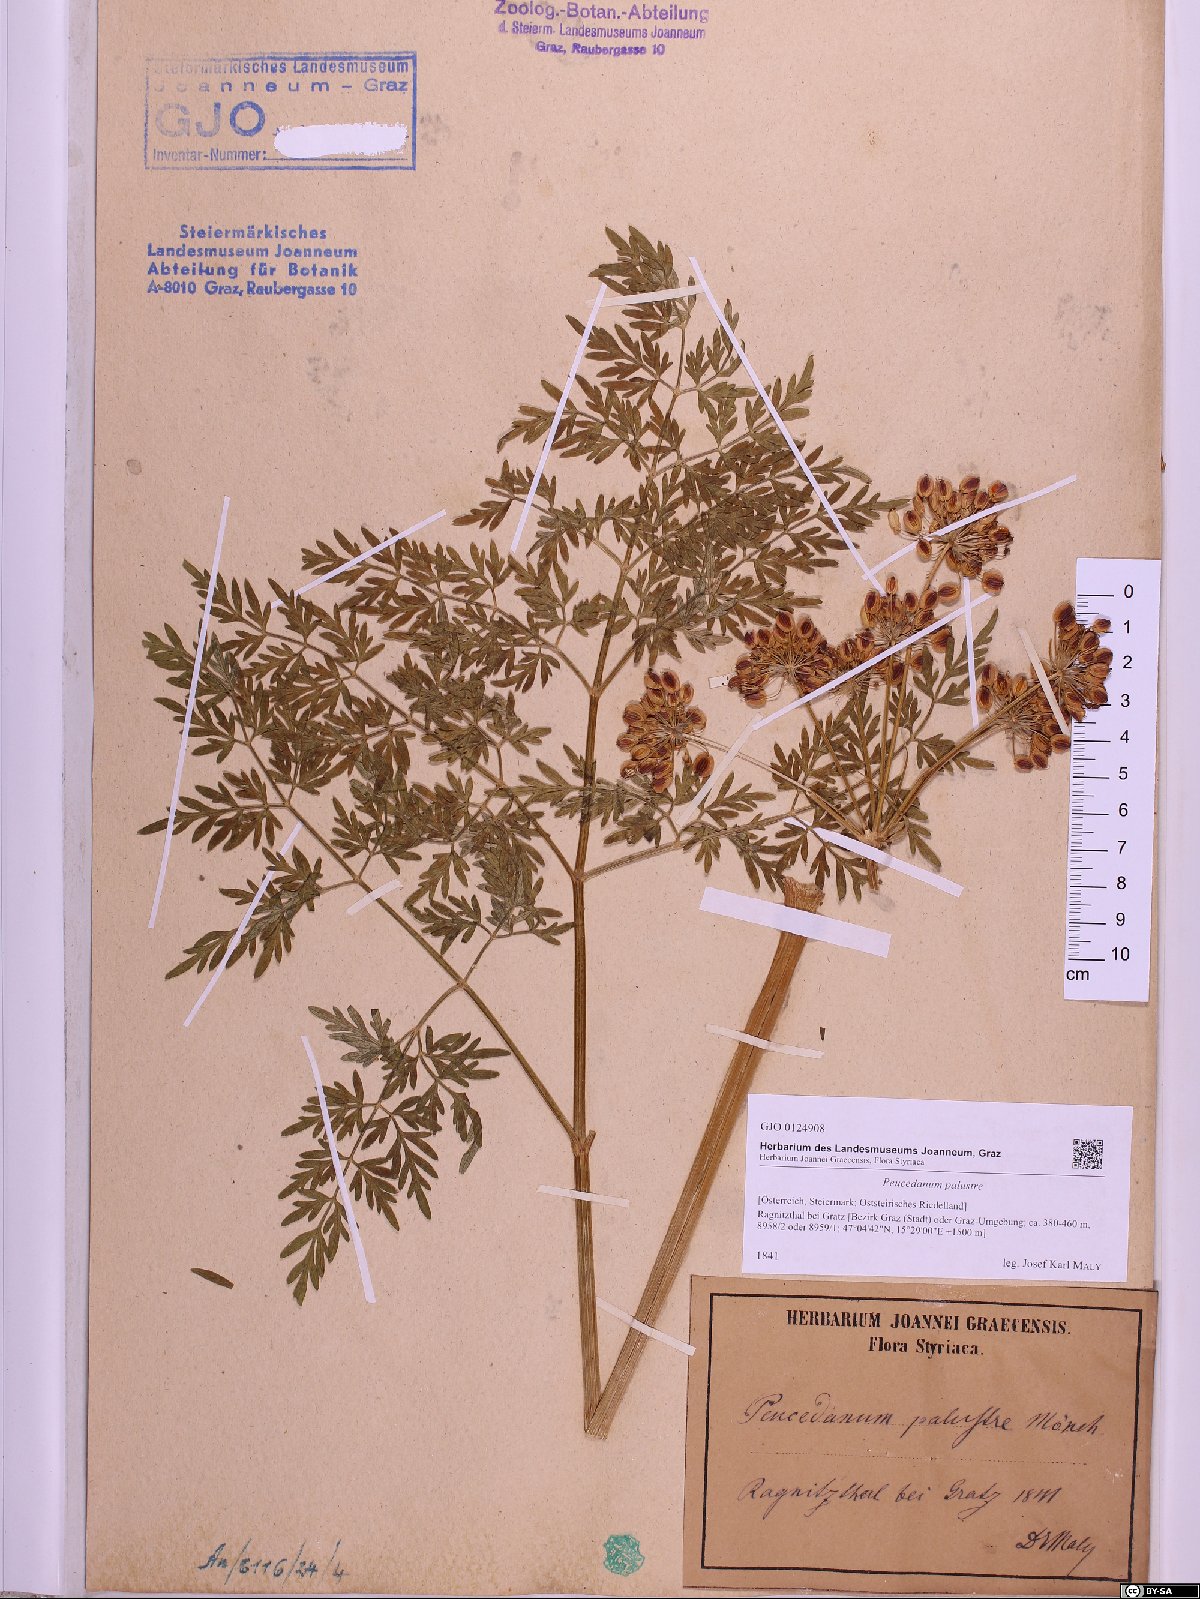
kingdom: Plantae
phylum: Tracheophyta
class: Magnoliopsida
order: Apiales
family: Apiaceae
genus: Thysselinum
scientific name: Thysselinum palustre
